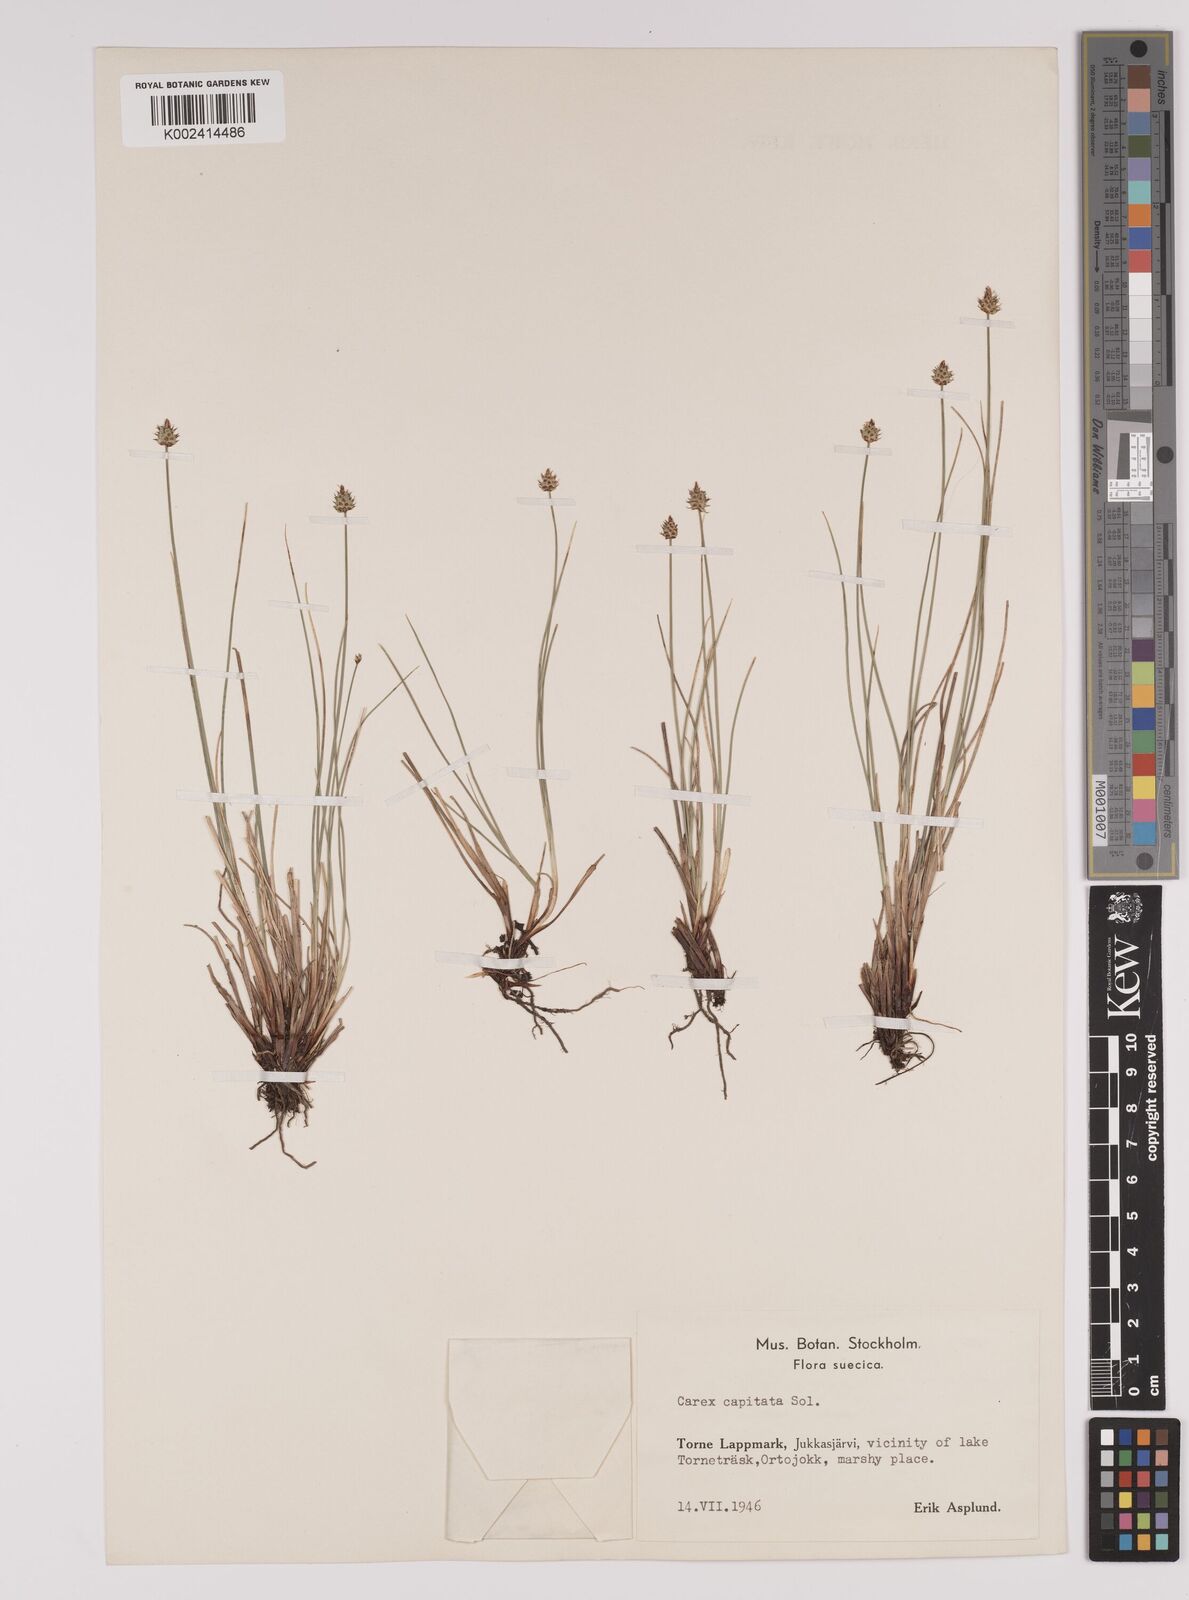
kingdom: Plantae
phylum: Tracheophyta
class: Liliopsida
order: Poales
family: Cyperaceae
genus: Carex
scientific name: Carex capitata
